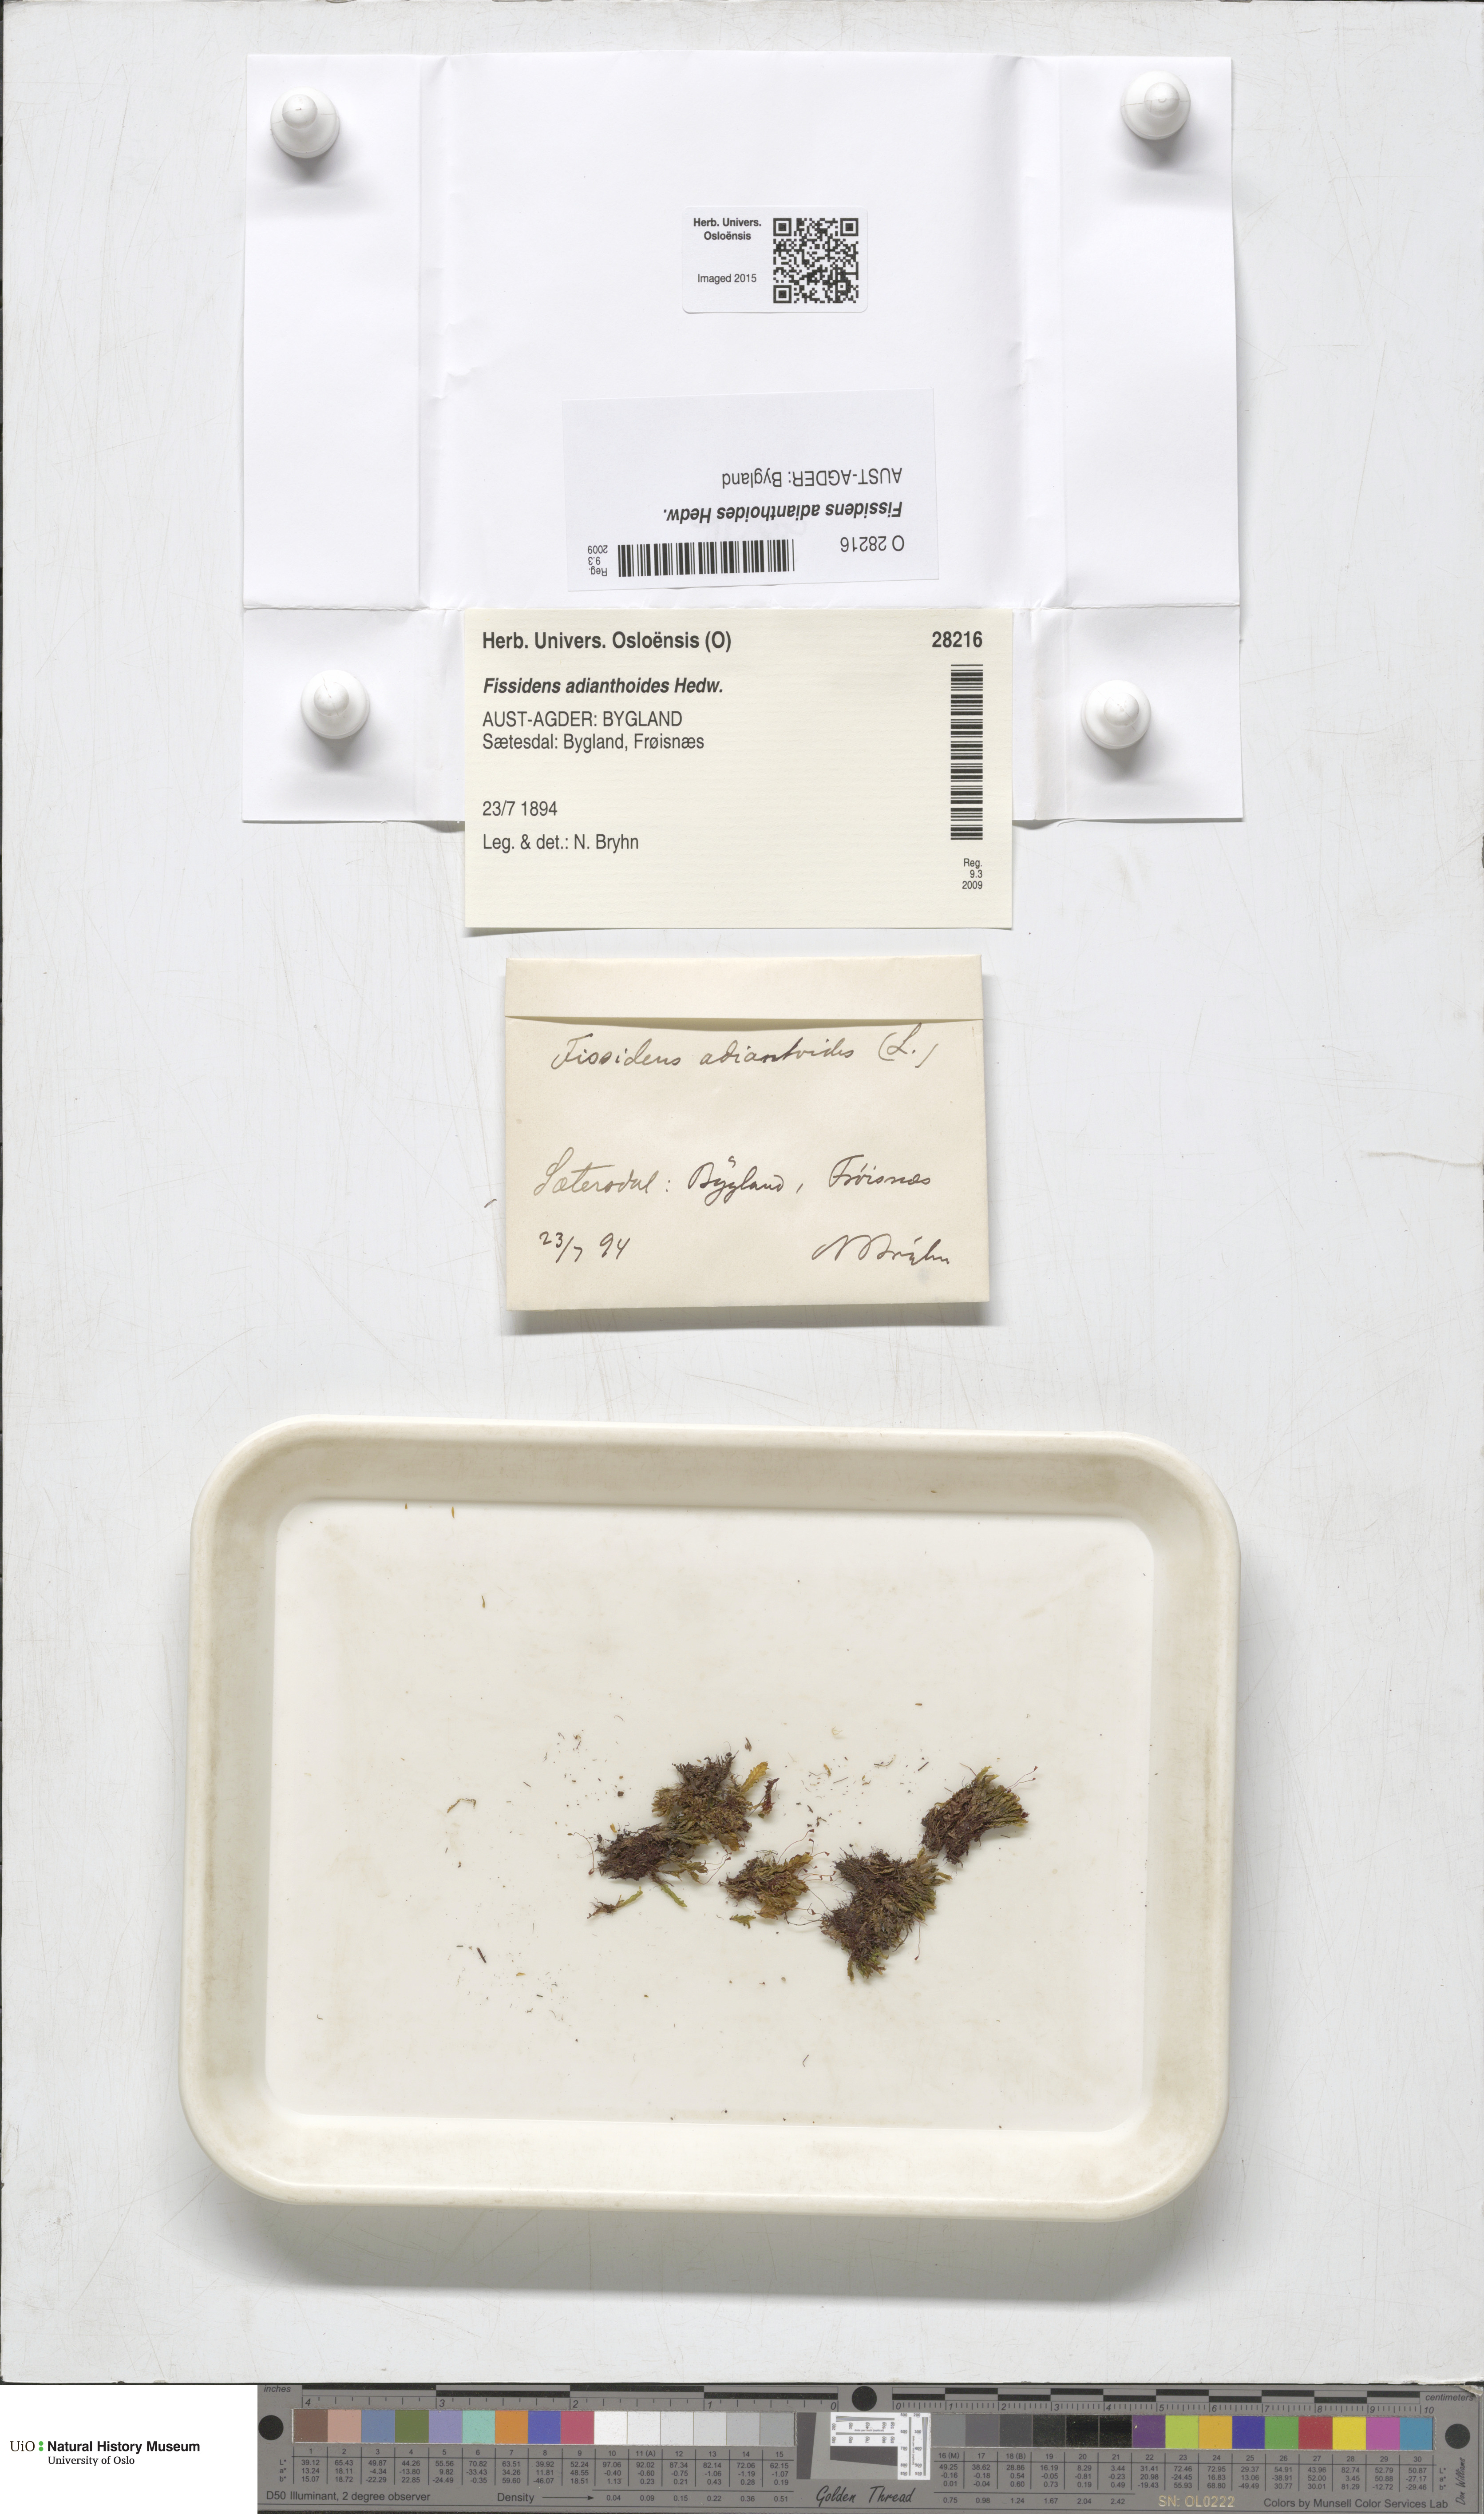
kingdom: Plantae
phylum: Bryophyta
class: Bryopsida
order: Dicranales
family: Fissidentaceae
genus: Fissidens
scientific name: Fissidens adianthoides
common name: Maidenhair pocket moss
